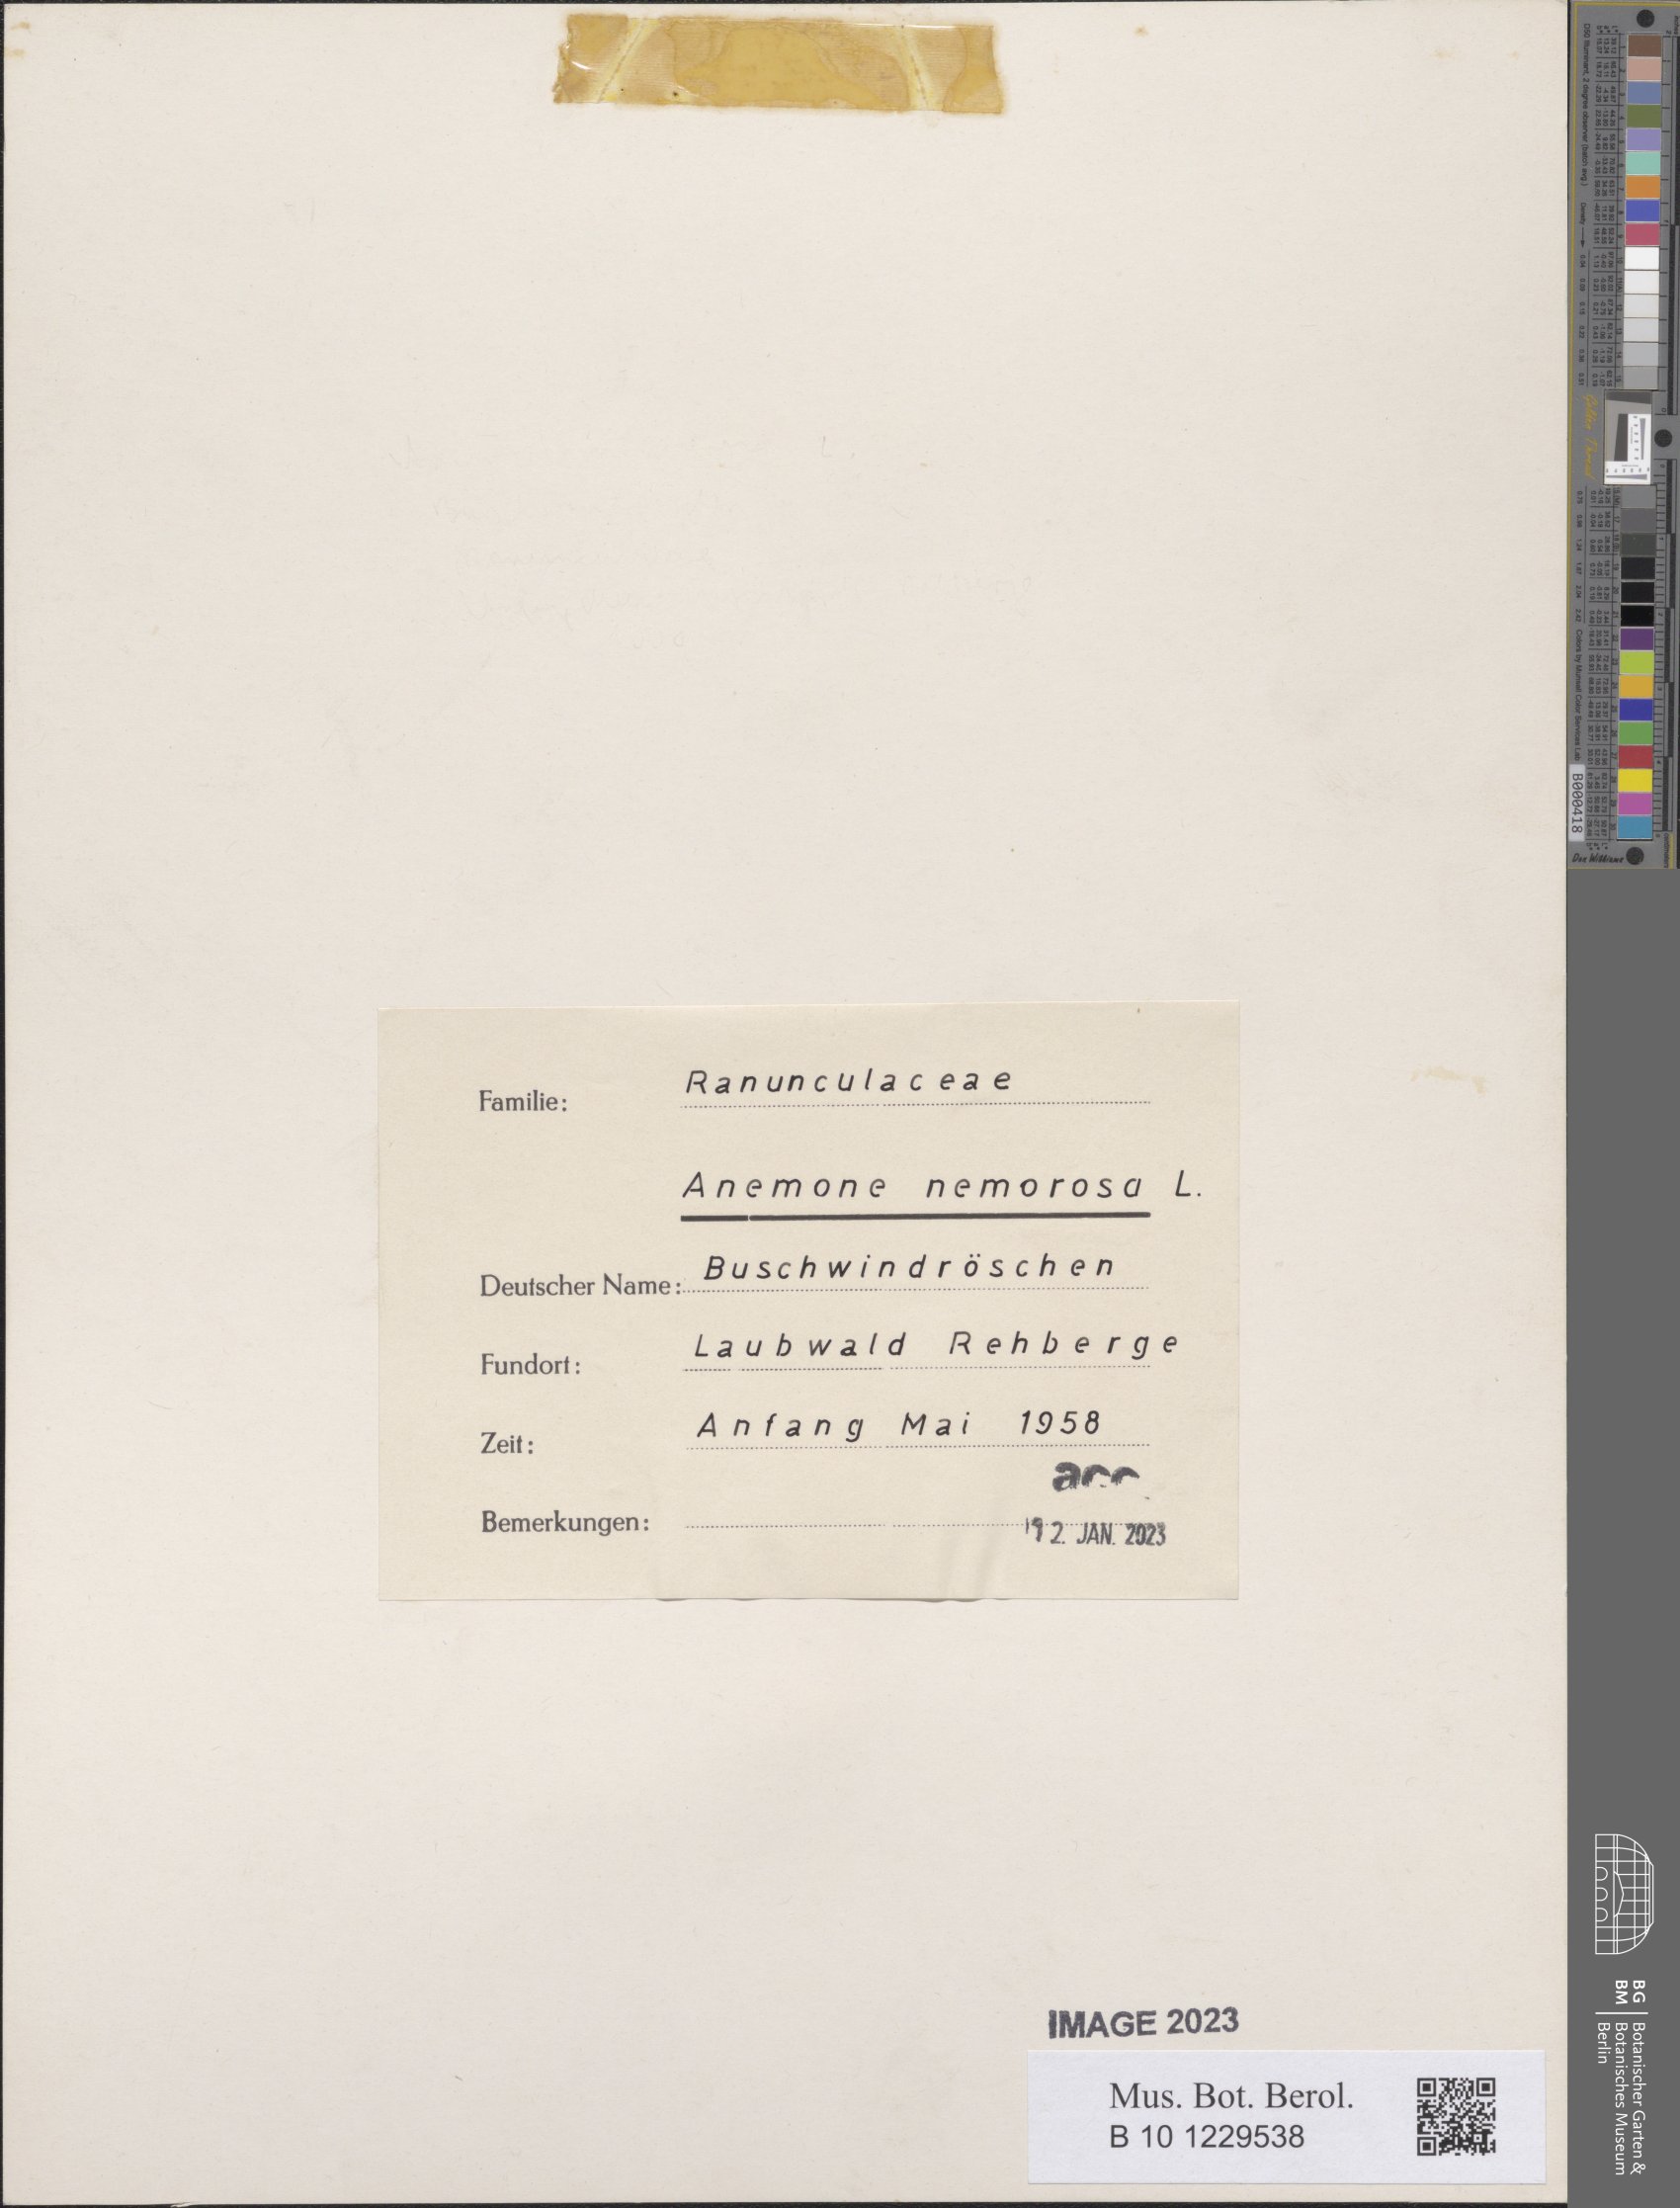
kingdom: Plantae
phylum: Tracheophyta
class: Magnoliopsida
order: Ranunculales
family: Ranunculaceae
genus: Anemone
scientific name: Anemone nemorosa
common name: Wood anemone
